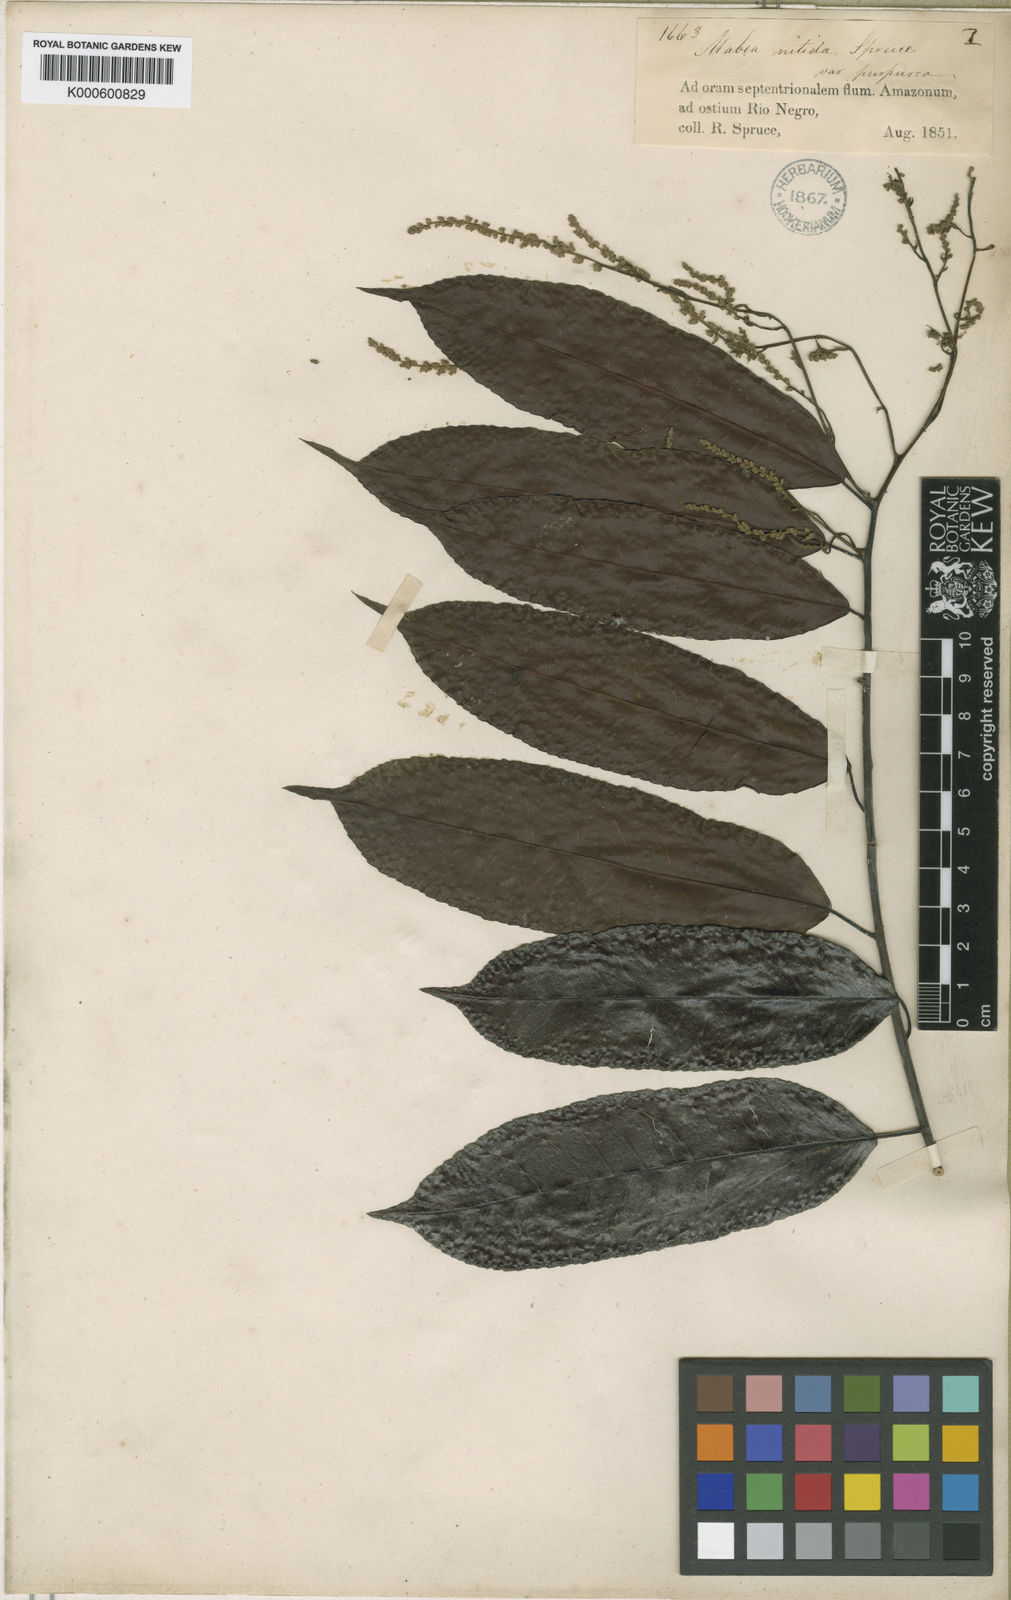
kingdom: Plantae
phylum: Tracheophyta
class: Magnoliopsida
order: Malpighiales
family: Euphorbiaceae
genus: Mabea
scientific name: Mabea
